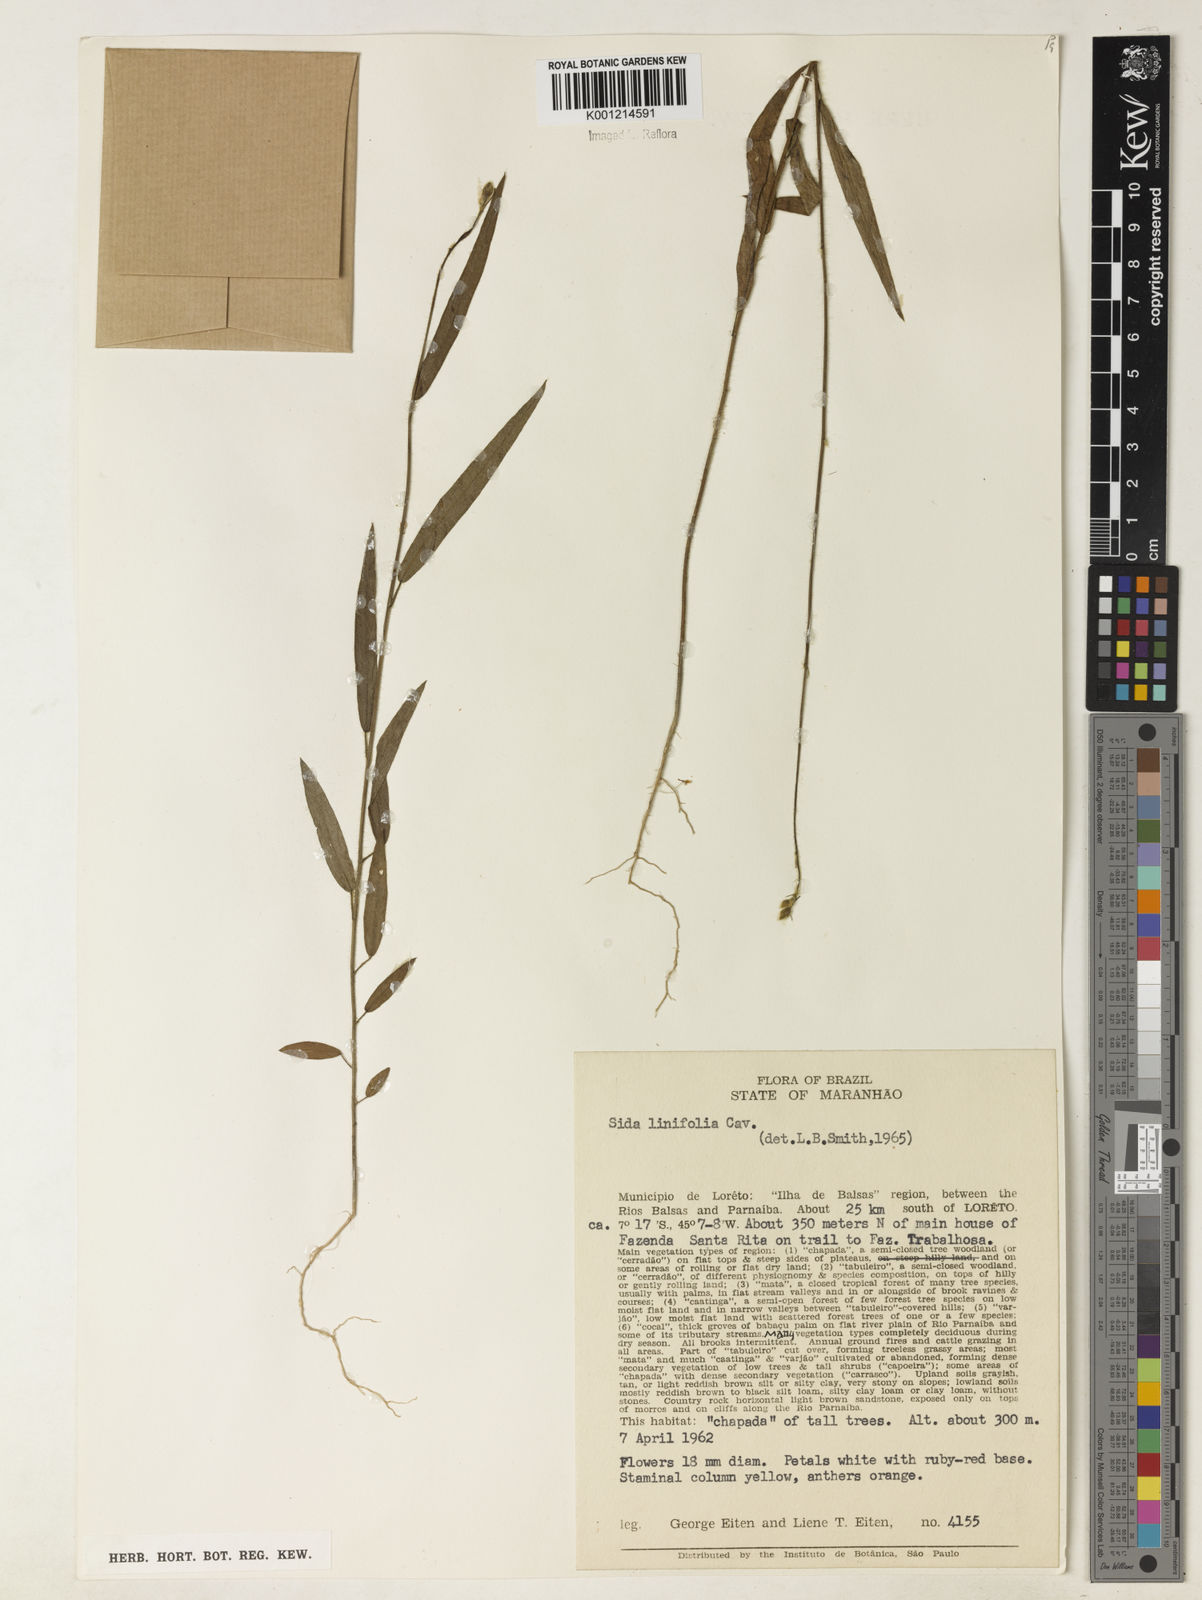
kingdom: Plantae
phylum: Tracheophyta
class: Magnoliopsida
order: Malvales
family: Malvaceae
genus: Sida
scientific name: Sida linifolia
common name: Flaxleaf fanpetals
